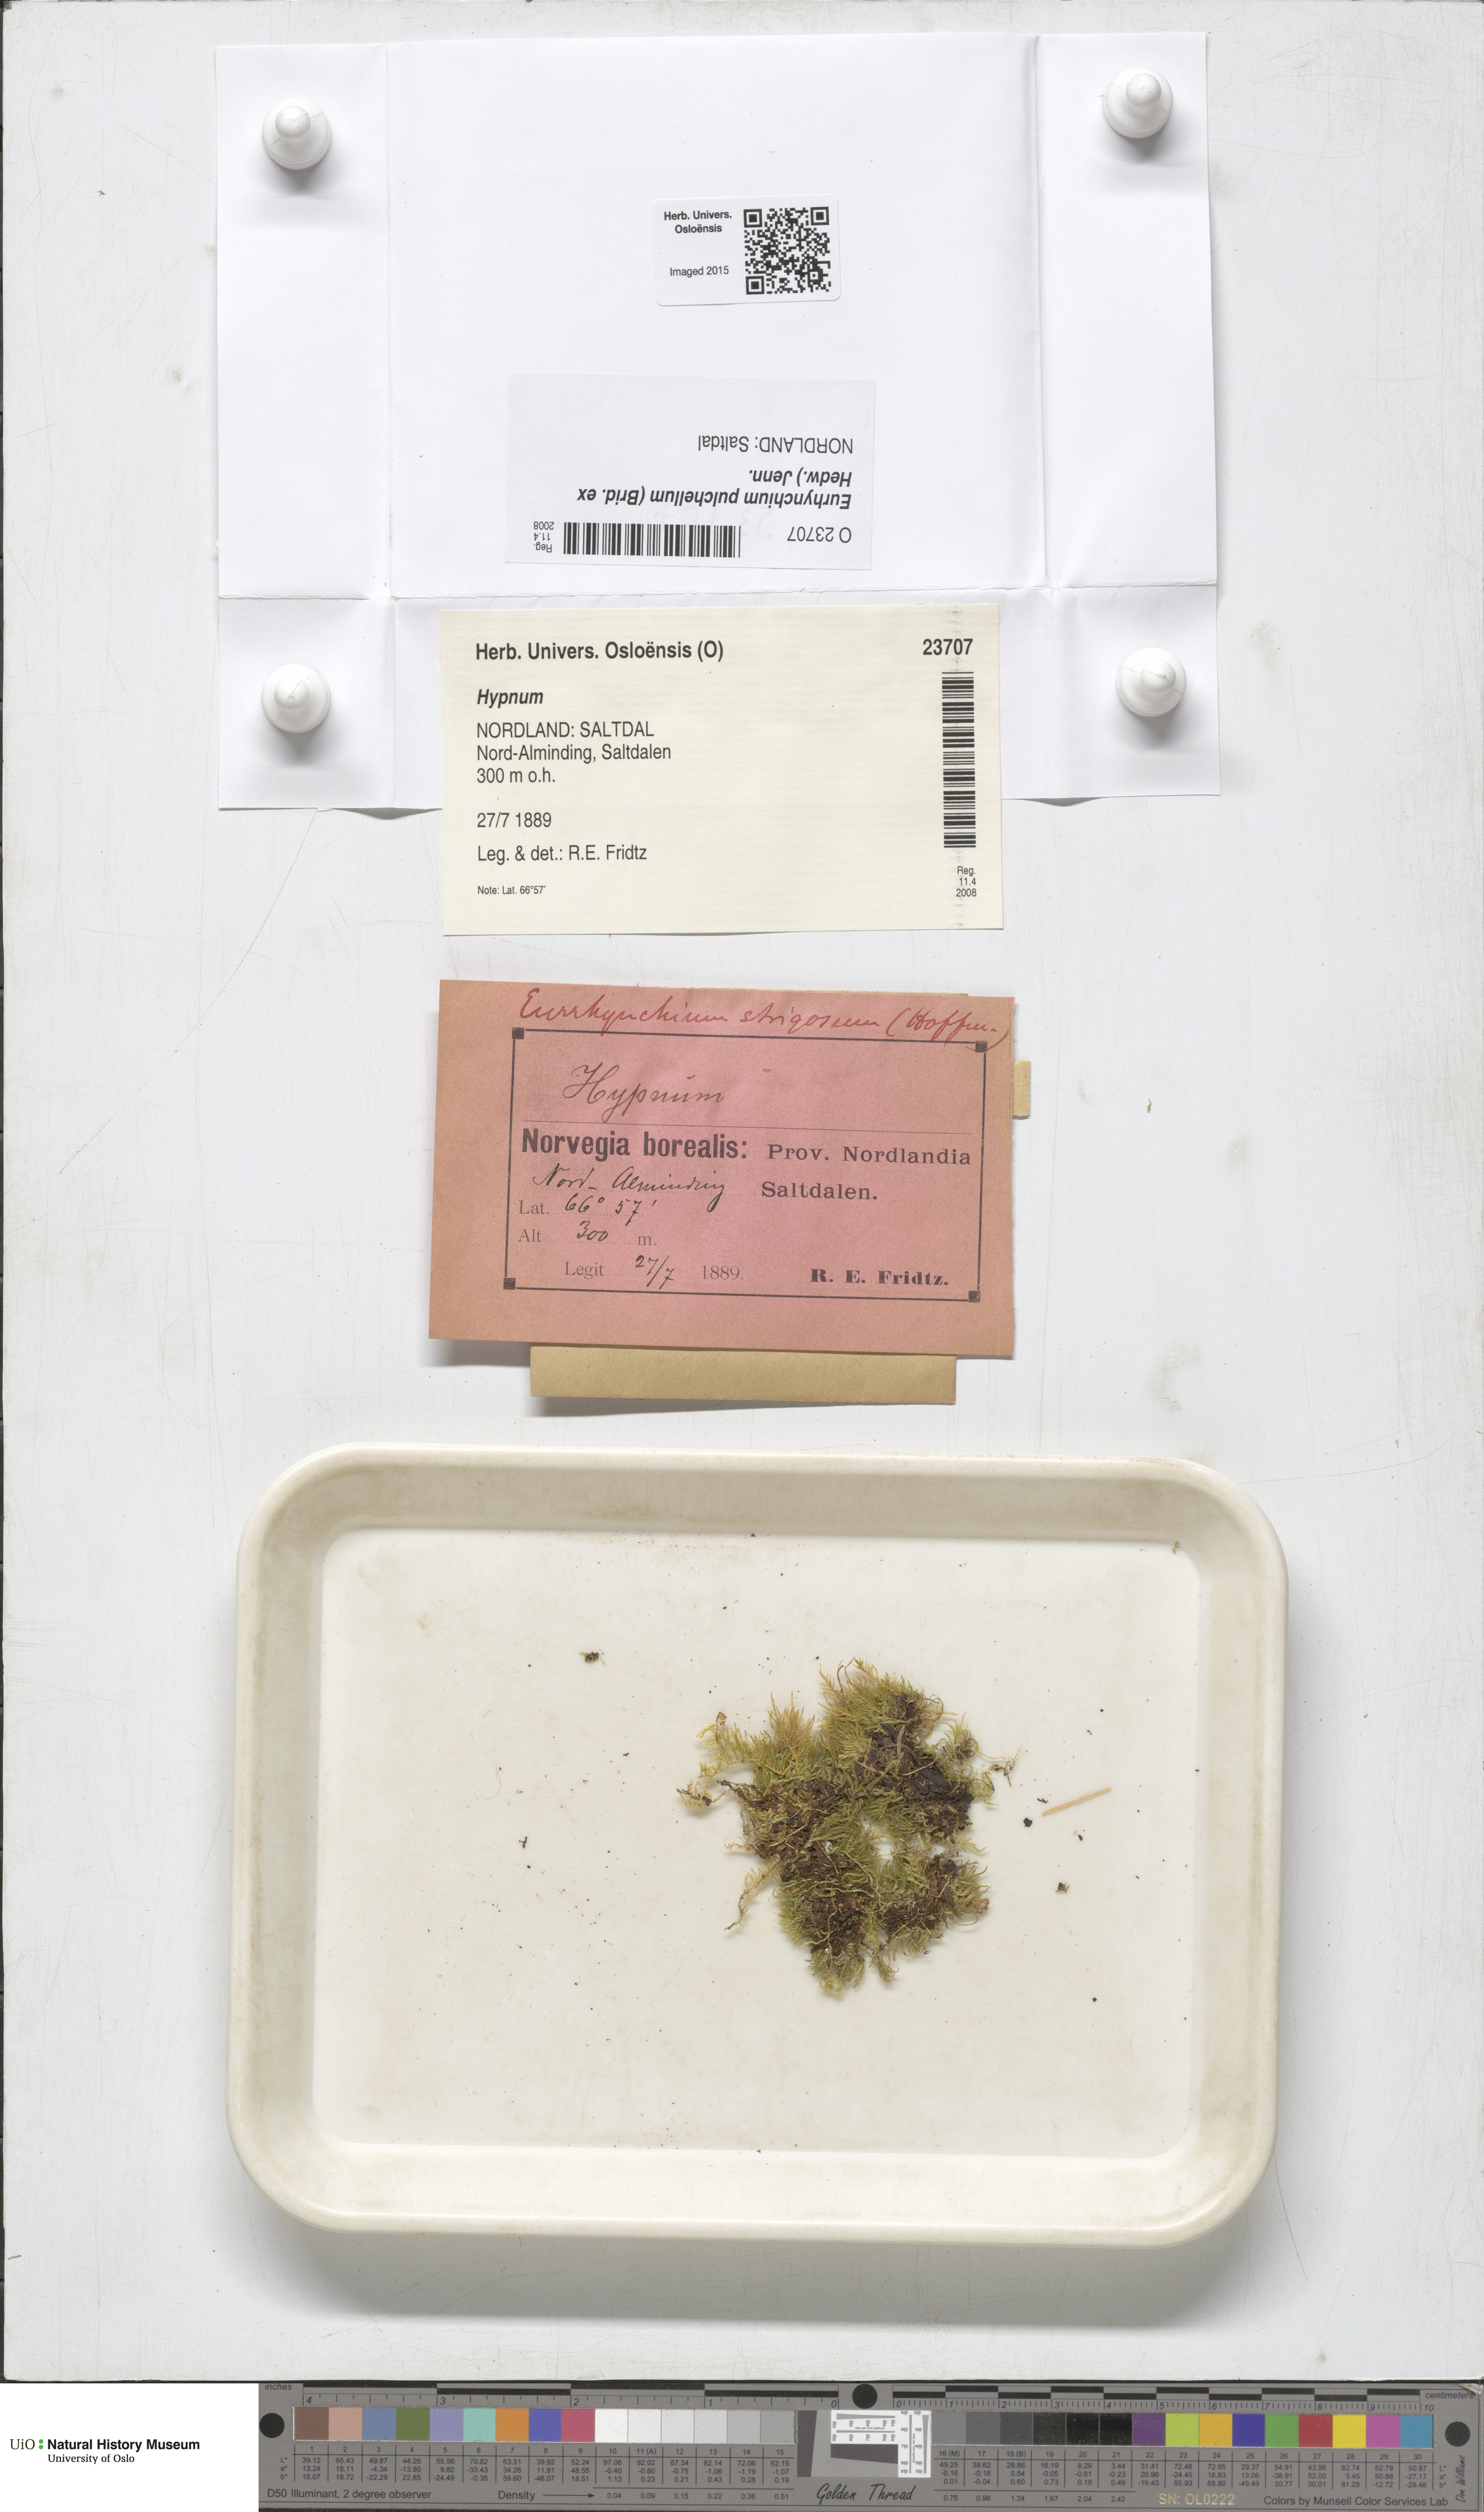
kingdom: Plantae
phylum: Bryophyta
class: Bryopsida
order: Hypnales
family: Brachytheciaceae
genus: Eurhynchiastrum
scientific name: Eurhynchiastrum pulchellum
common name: Elegant beaked moss
